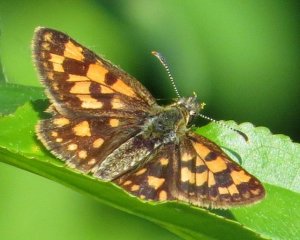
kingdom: Animalia
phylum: Arthropoda
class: Insecta
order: Lepidoptera
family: Hesperiidae
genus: Carterocephalus
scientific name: Carterocephalus palaemon
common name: Chequered Skipper
